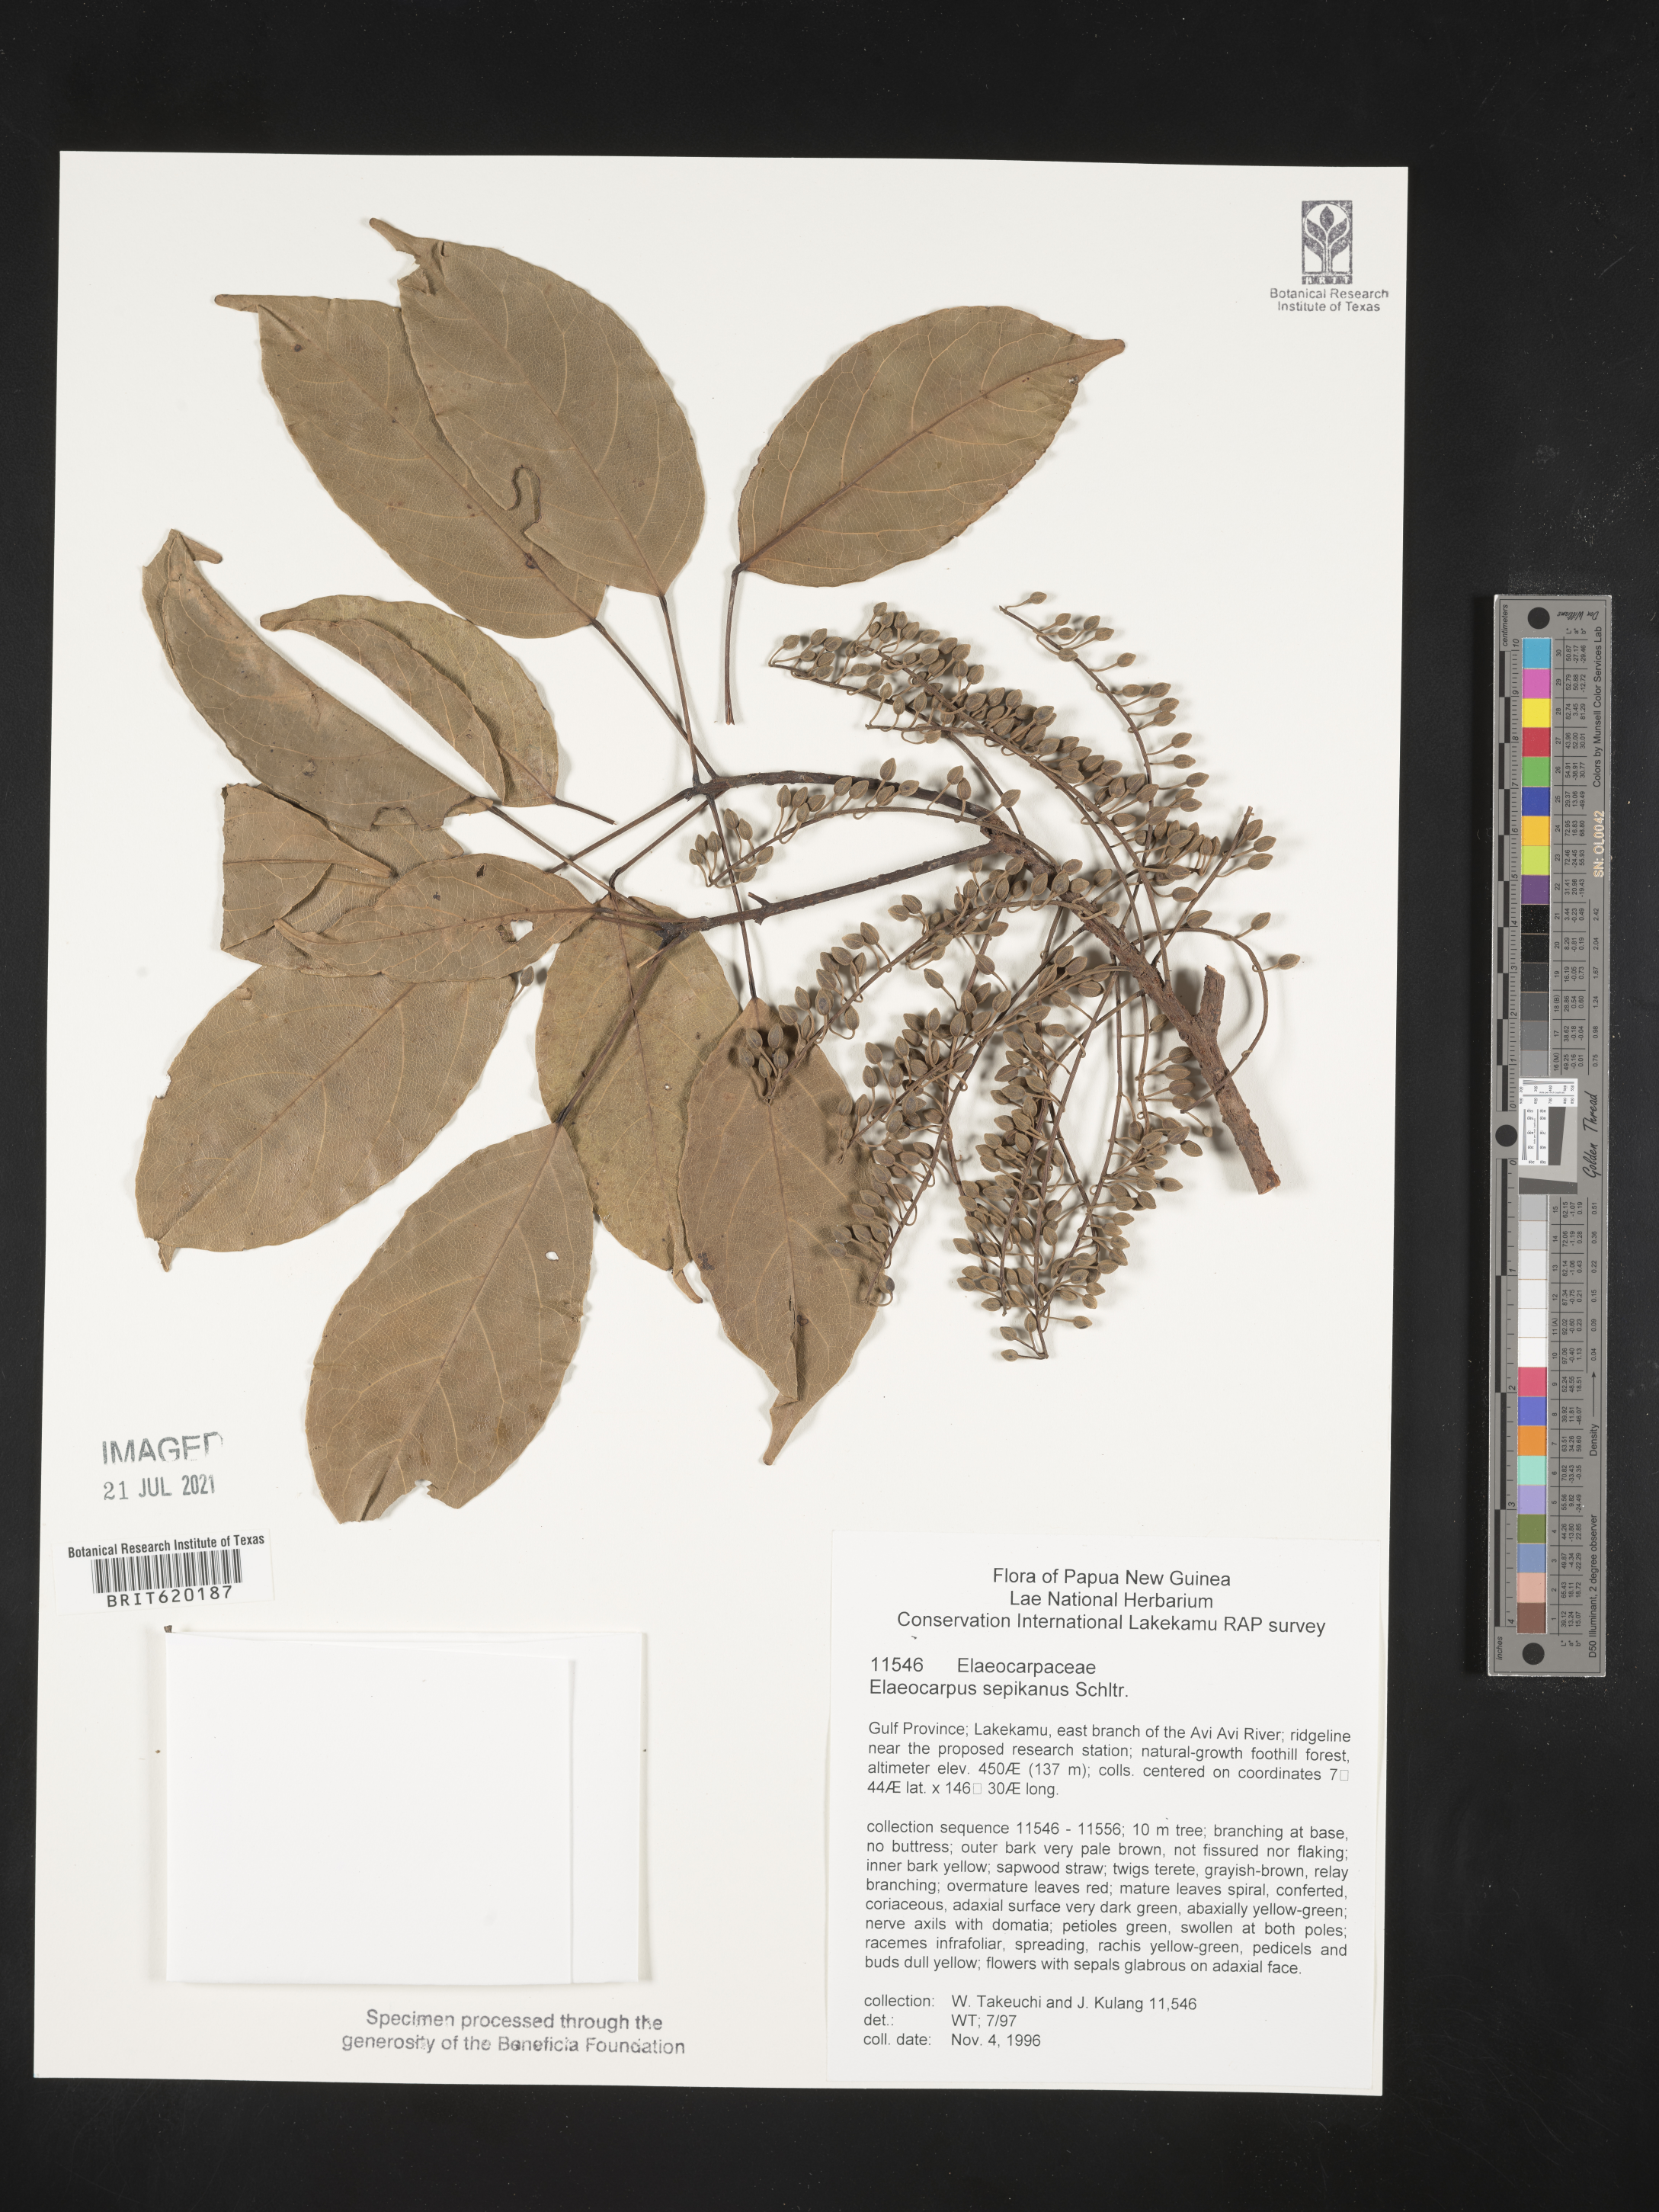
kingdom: Plantae
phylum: Tracheophyta
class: Magnoliopsida
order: Oxalidales
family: Elaeocarpaceae
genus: Elaeocarpus
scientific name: Elaeocarpus sepikanus
